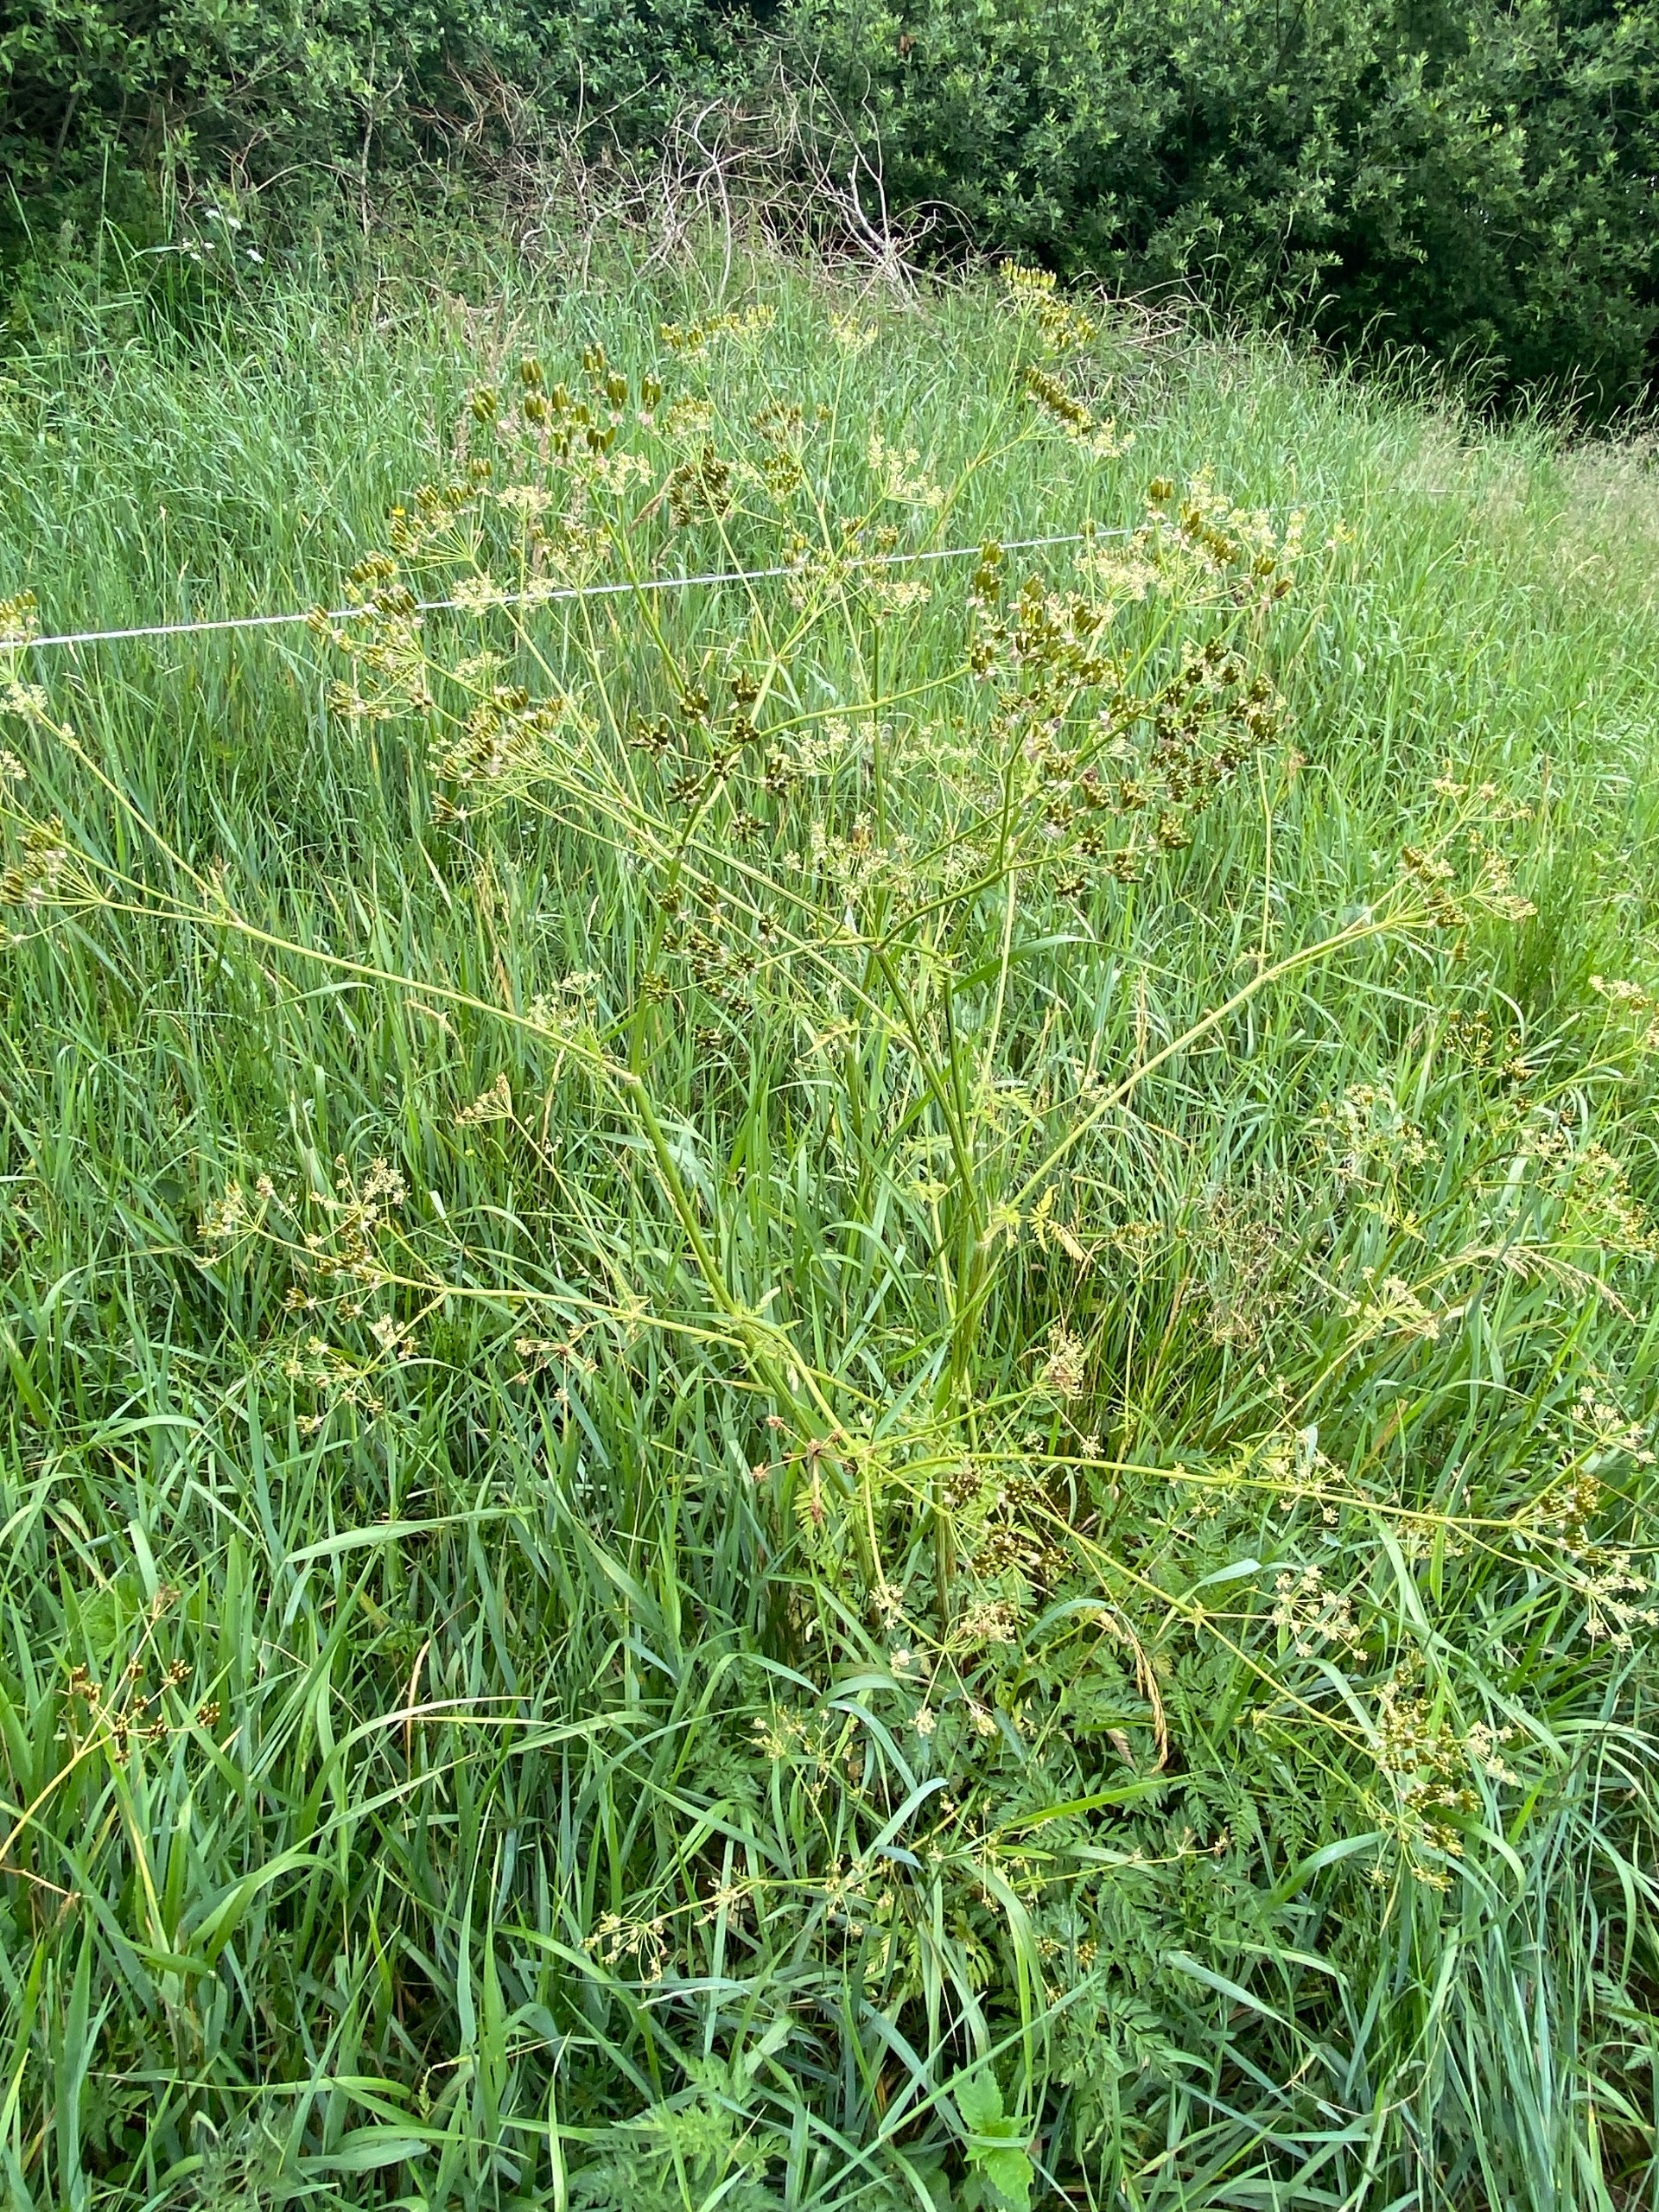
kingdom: Plantae
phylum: Tracheophyta
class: Magnoliopsida
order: Apiales
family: Apiaceae
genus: Anthriscus
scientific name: Anthriscus sylvestris
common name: Vild kørvel
